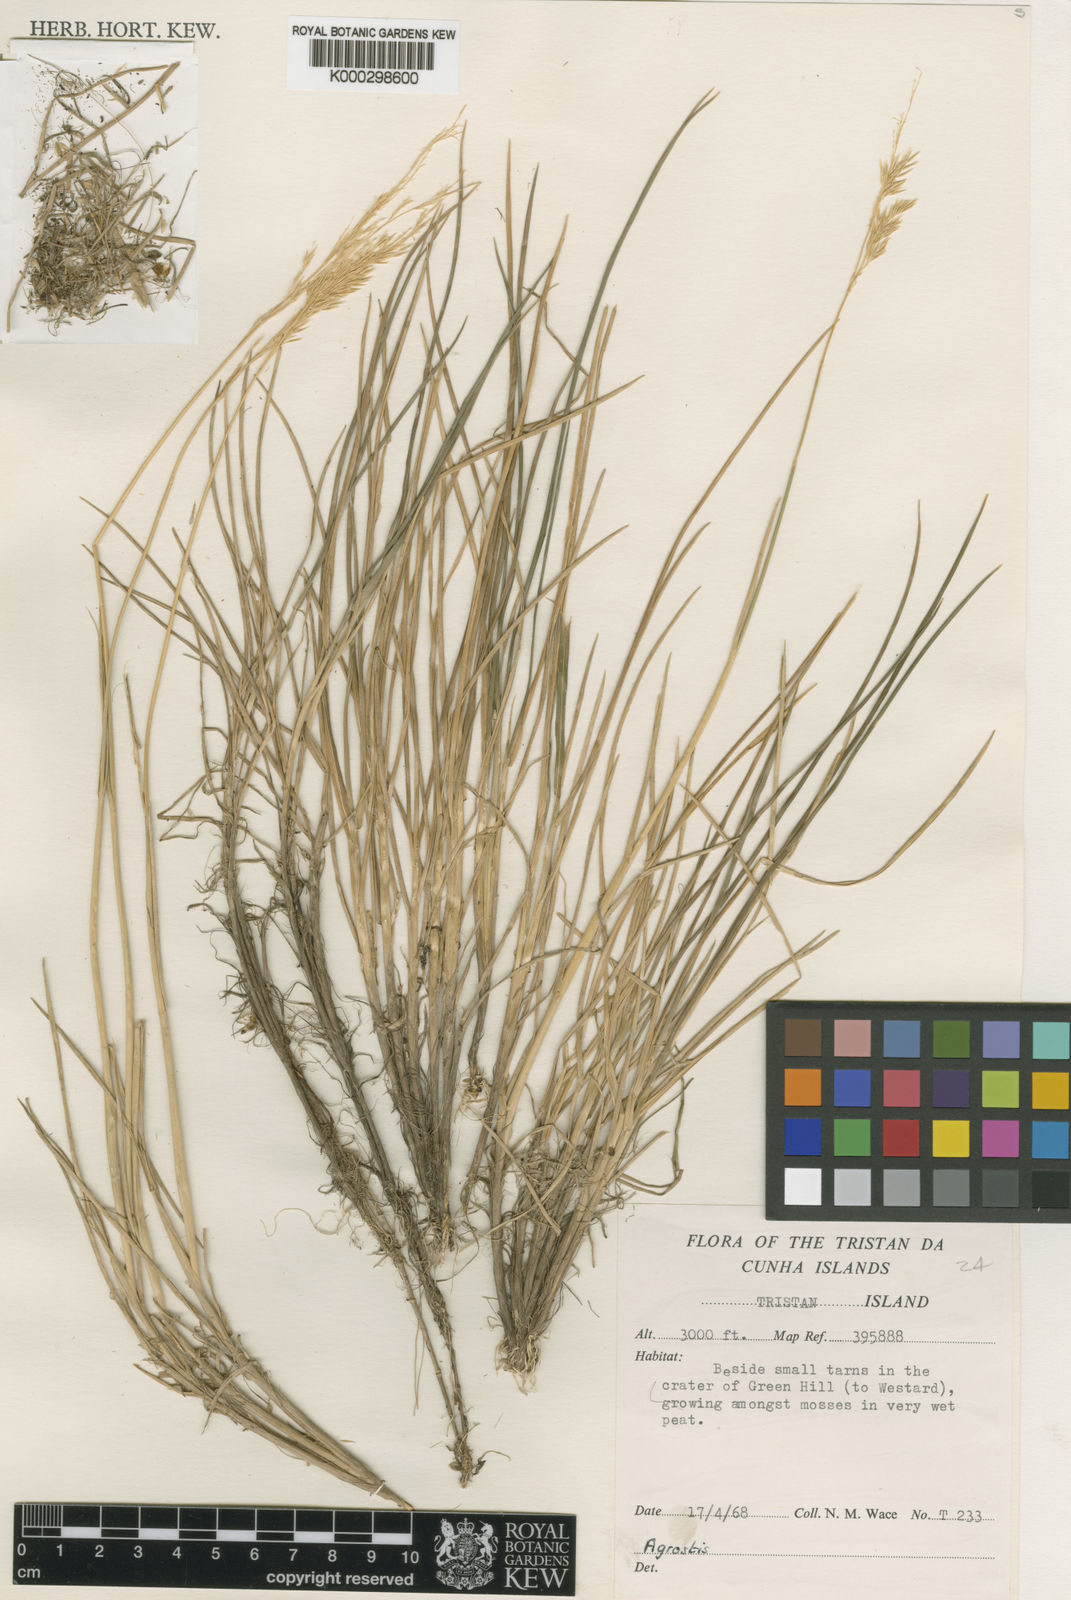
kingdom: Plantae
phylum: Tracheophyta
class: Liliopsida
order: Poales
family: Poaceae
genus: Agrostis
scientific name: Agrostis
